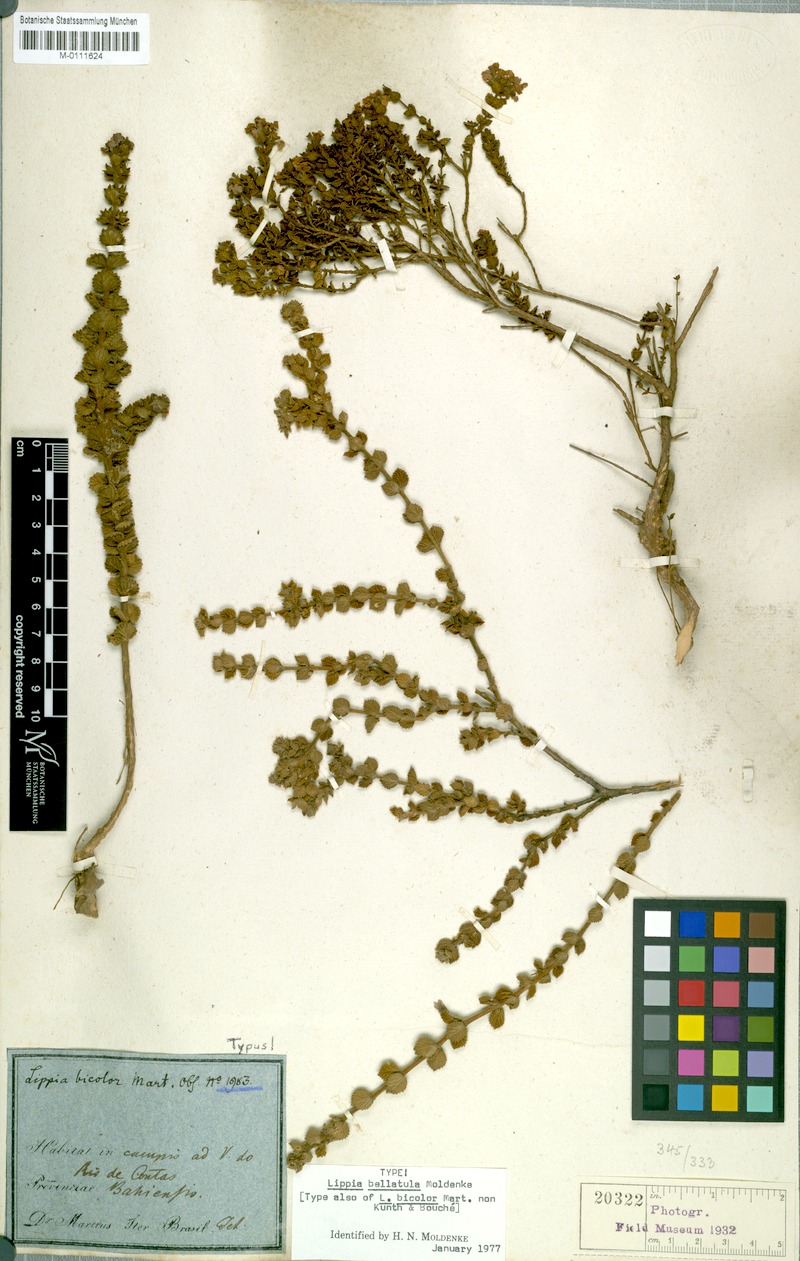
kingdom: Plantae
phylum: Tracheophyta
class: Magnoliopsida
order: Lamiales
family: Verbenaceae
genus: Lippia
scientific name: Lippia bellatula
